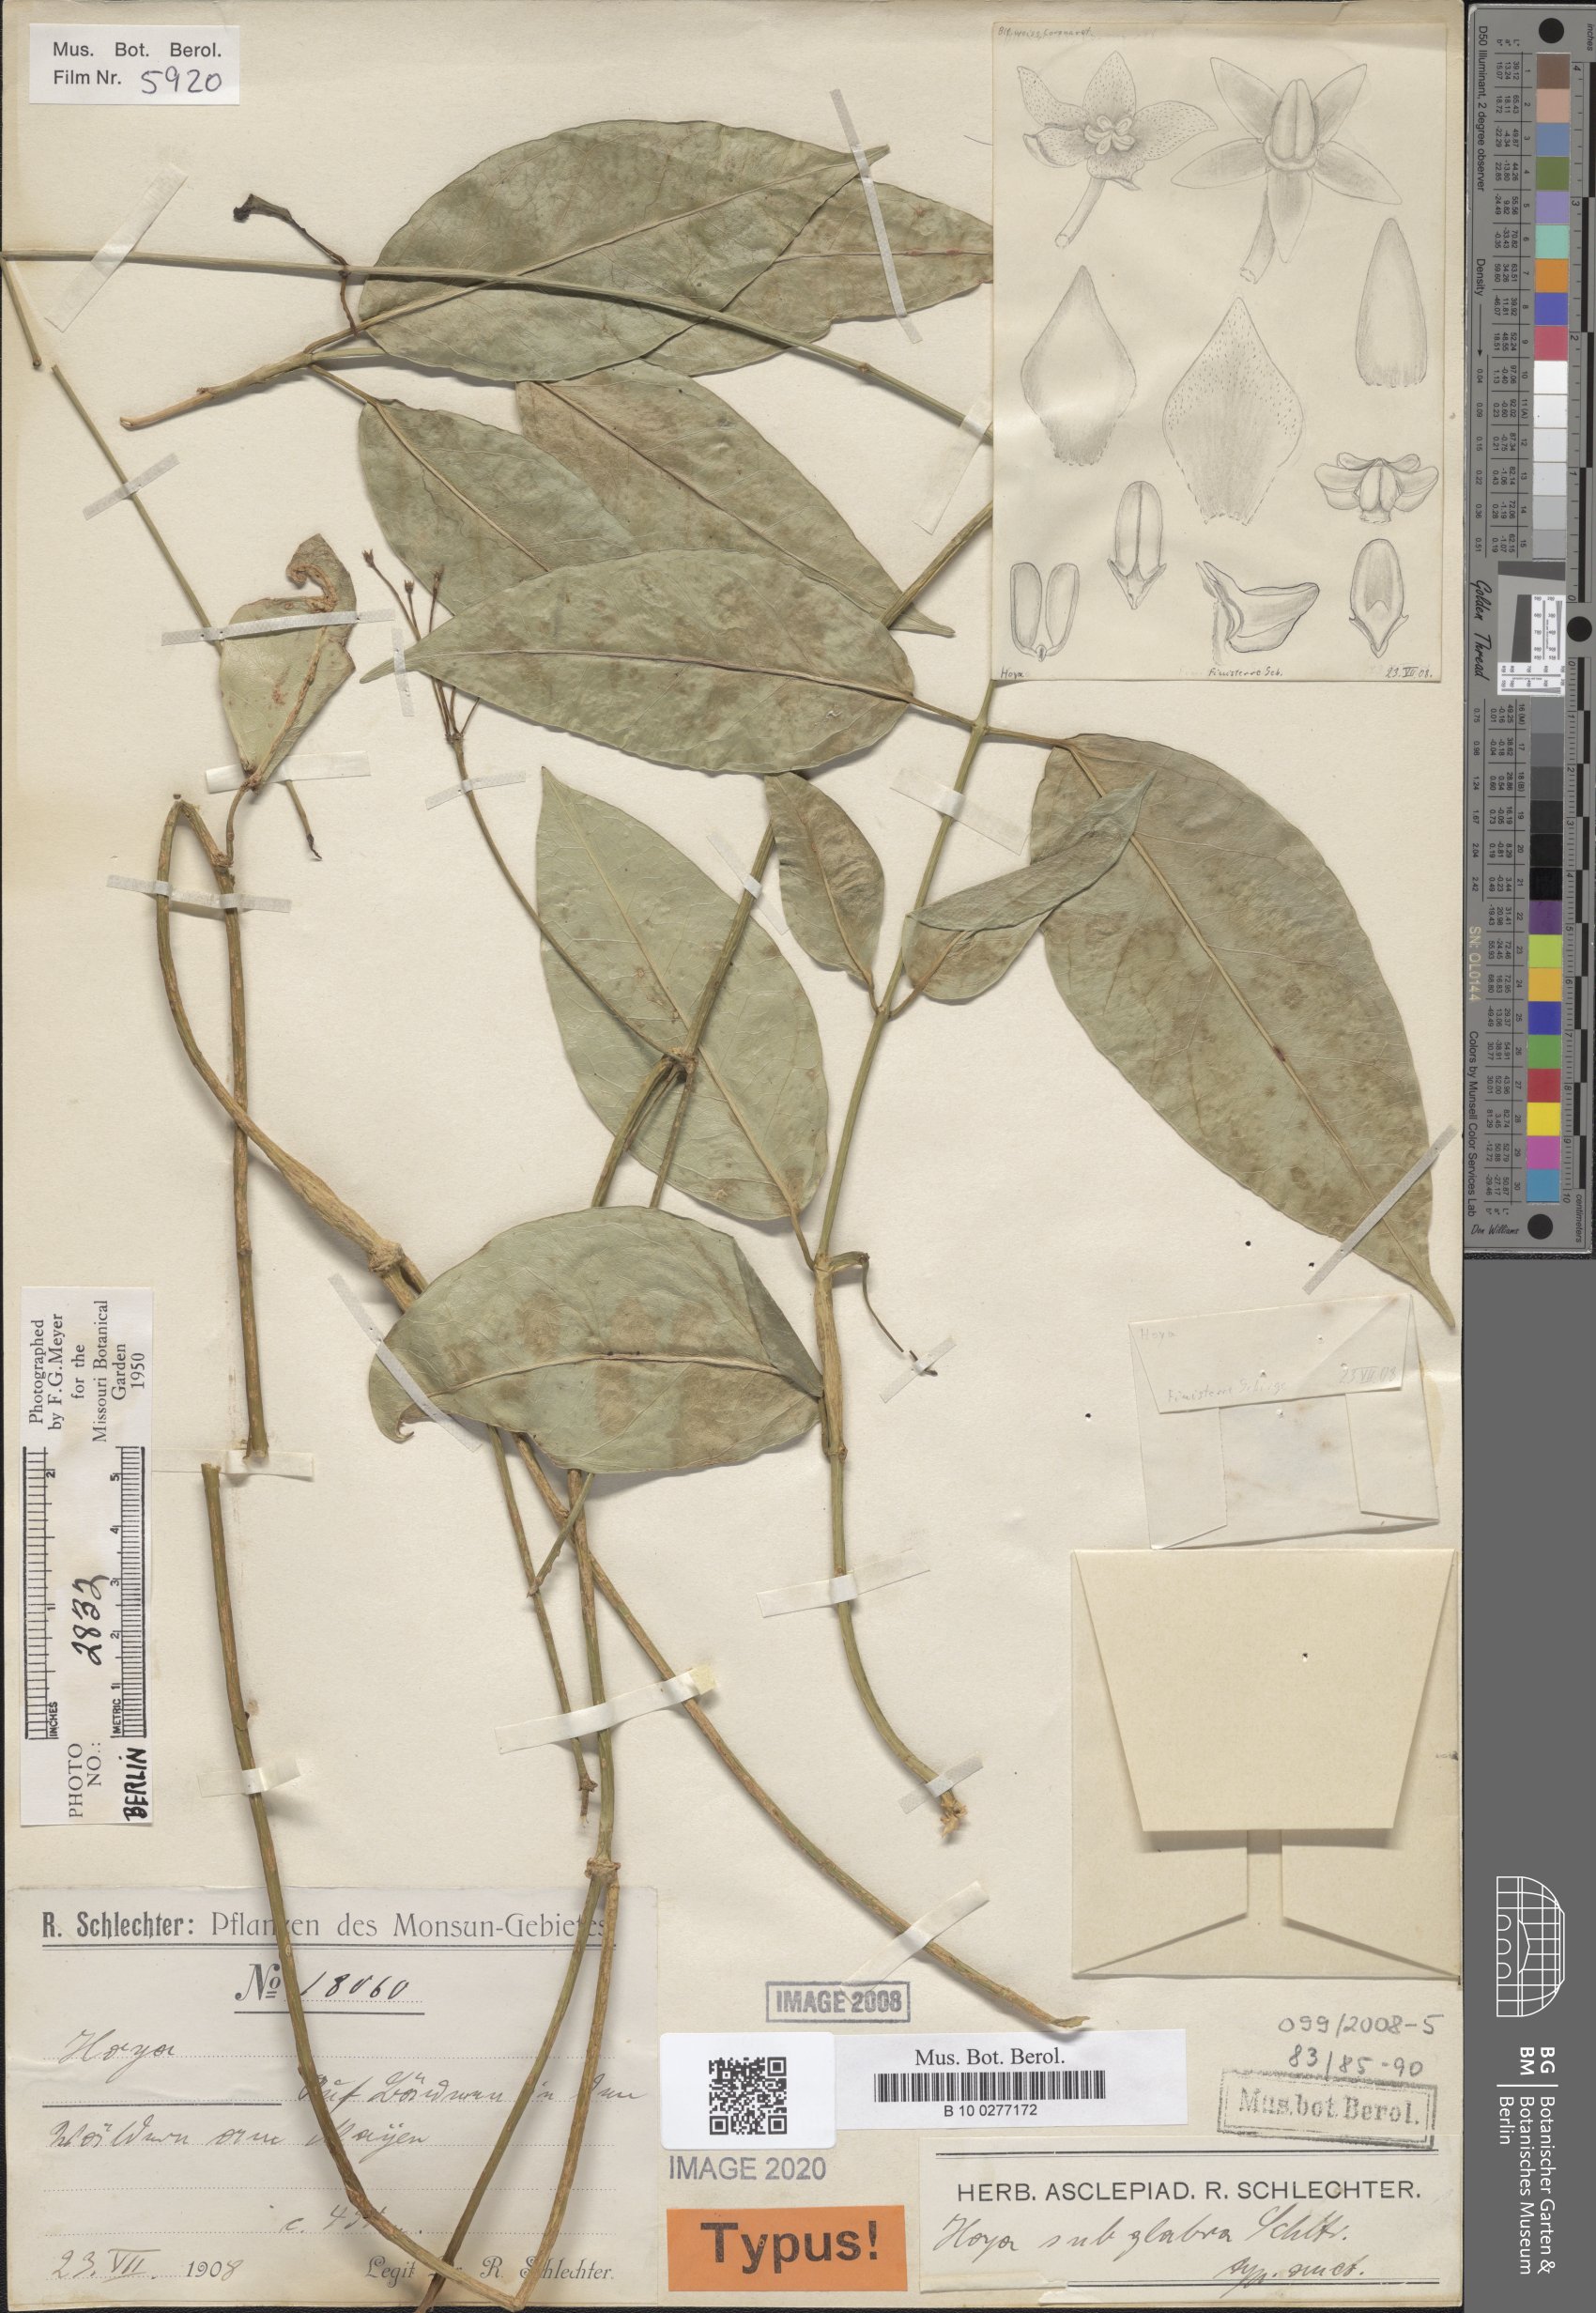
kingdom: Plantae
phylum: Tracheophyta
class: Magnoliopsida
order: Gentianales
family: Apocynaceae
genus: Hoya
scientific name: Hoya subglabra
